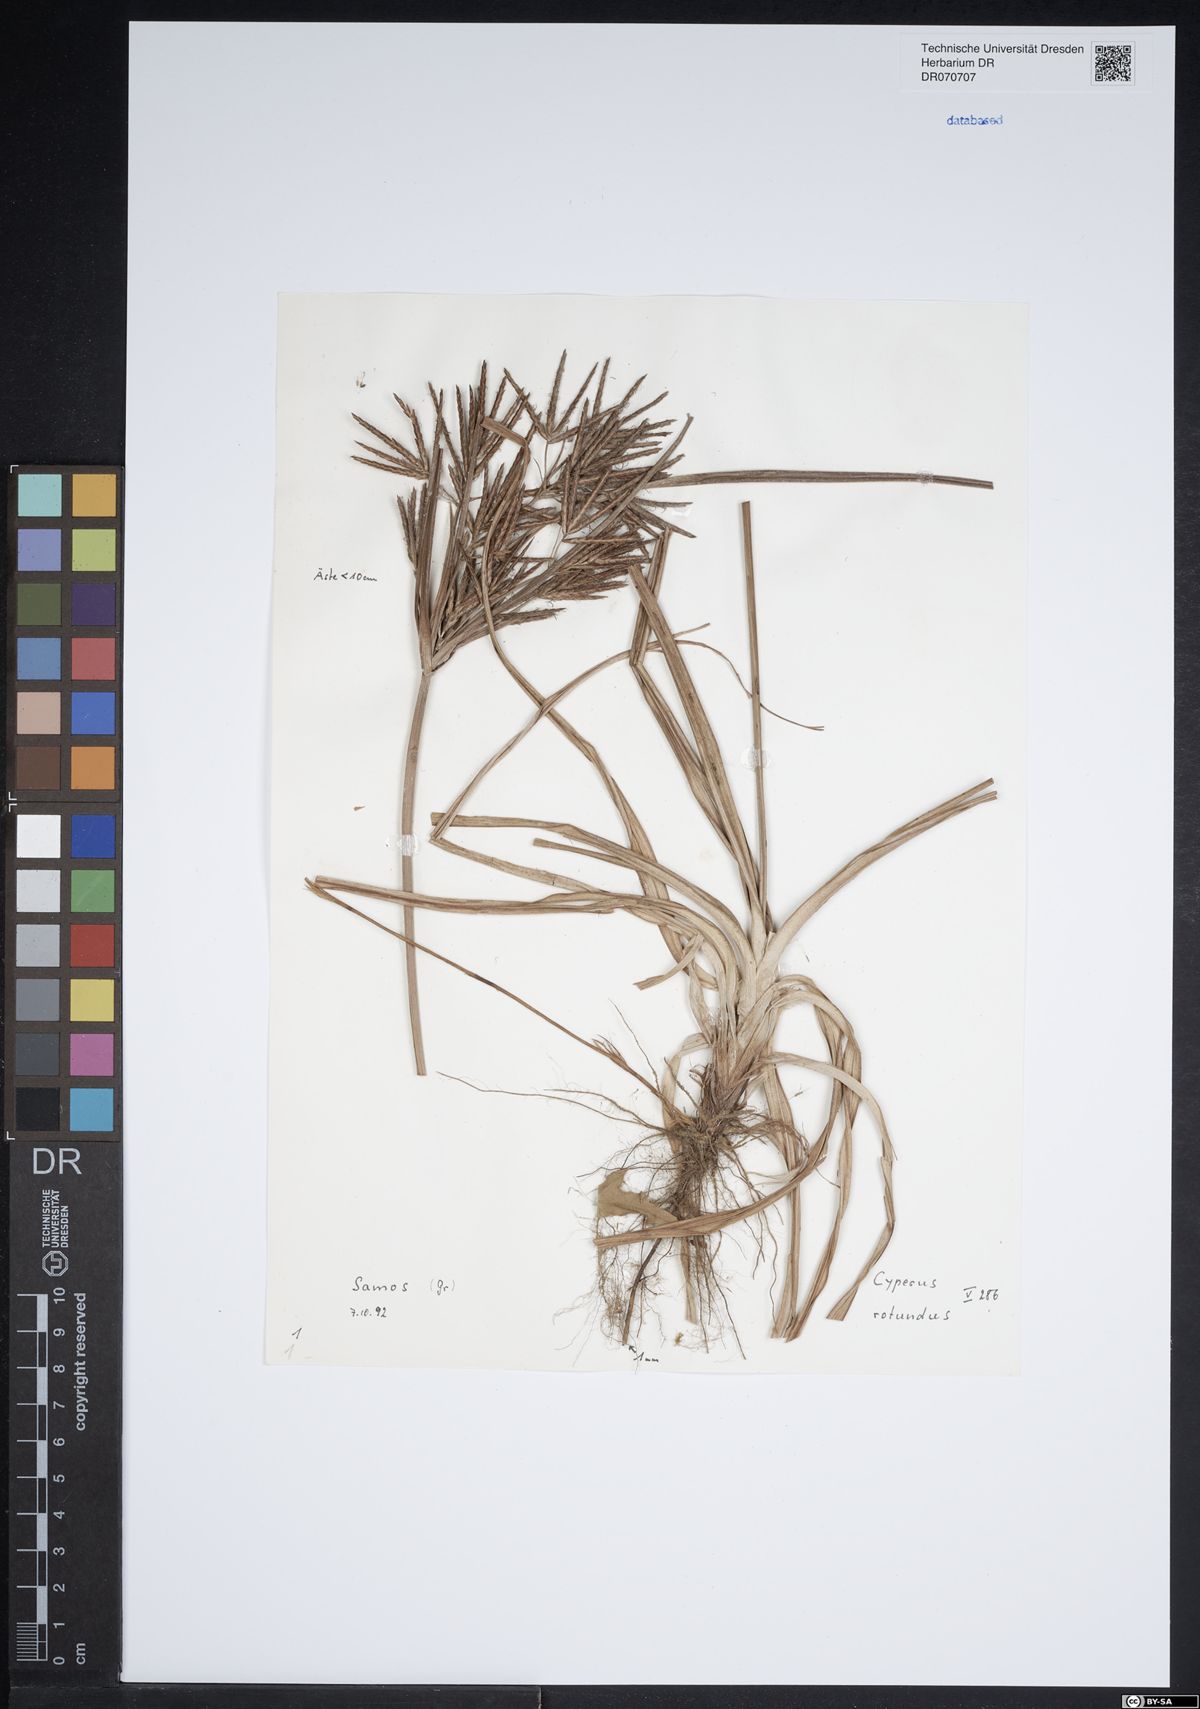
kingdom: Plantae
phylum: Tracheophyta
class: Liliopsida
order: Poales
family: Cyperaceae
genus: Cyperus
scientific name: Cyperus rotundus
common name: Nutgrass
